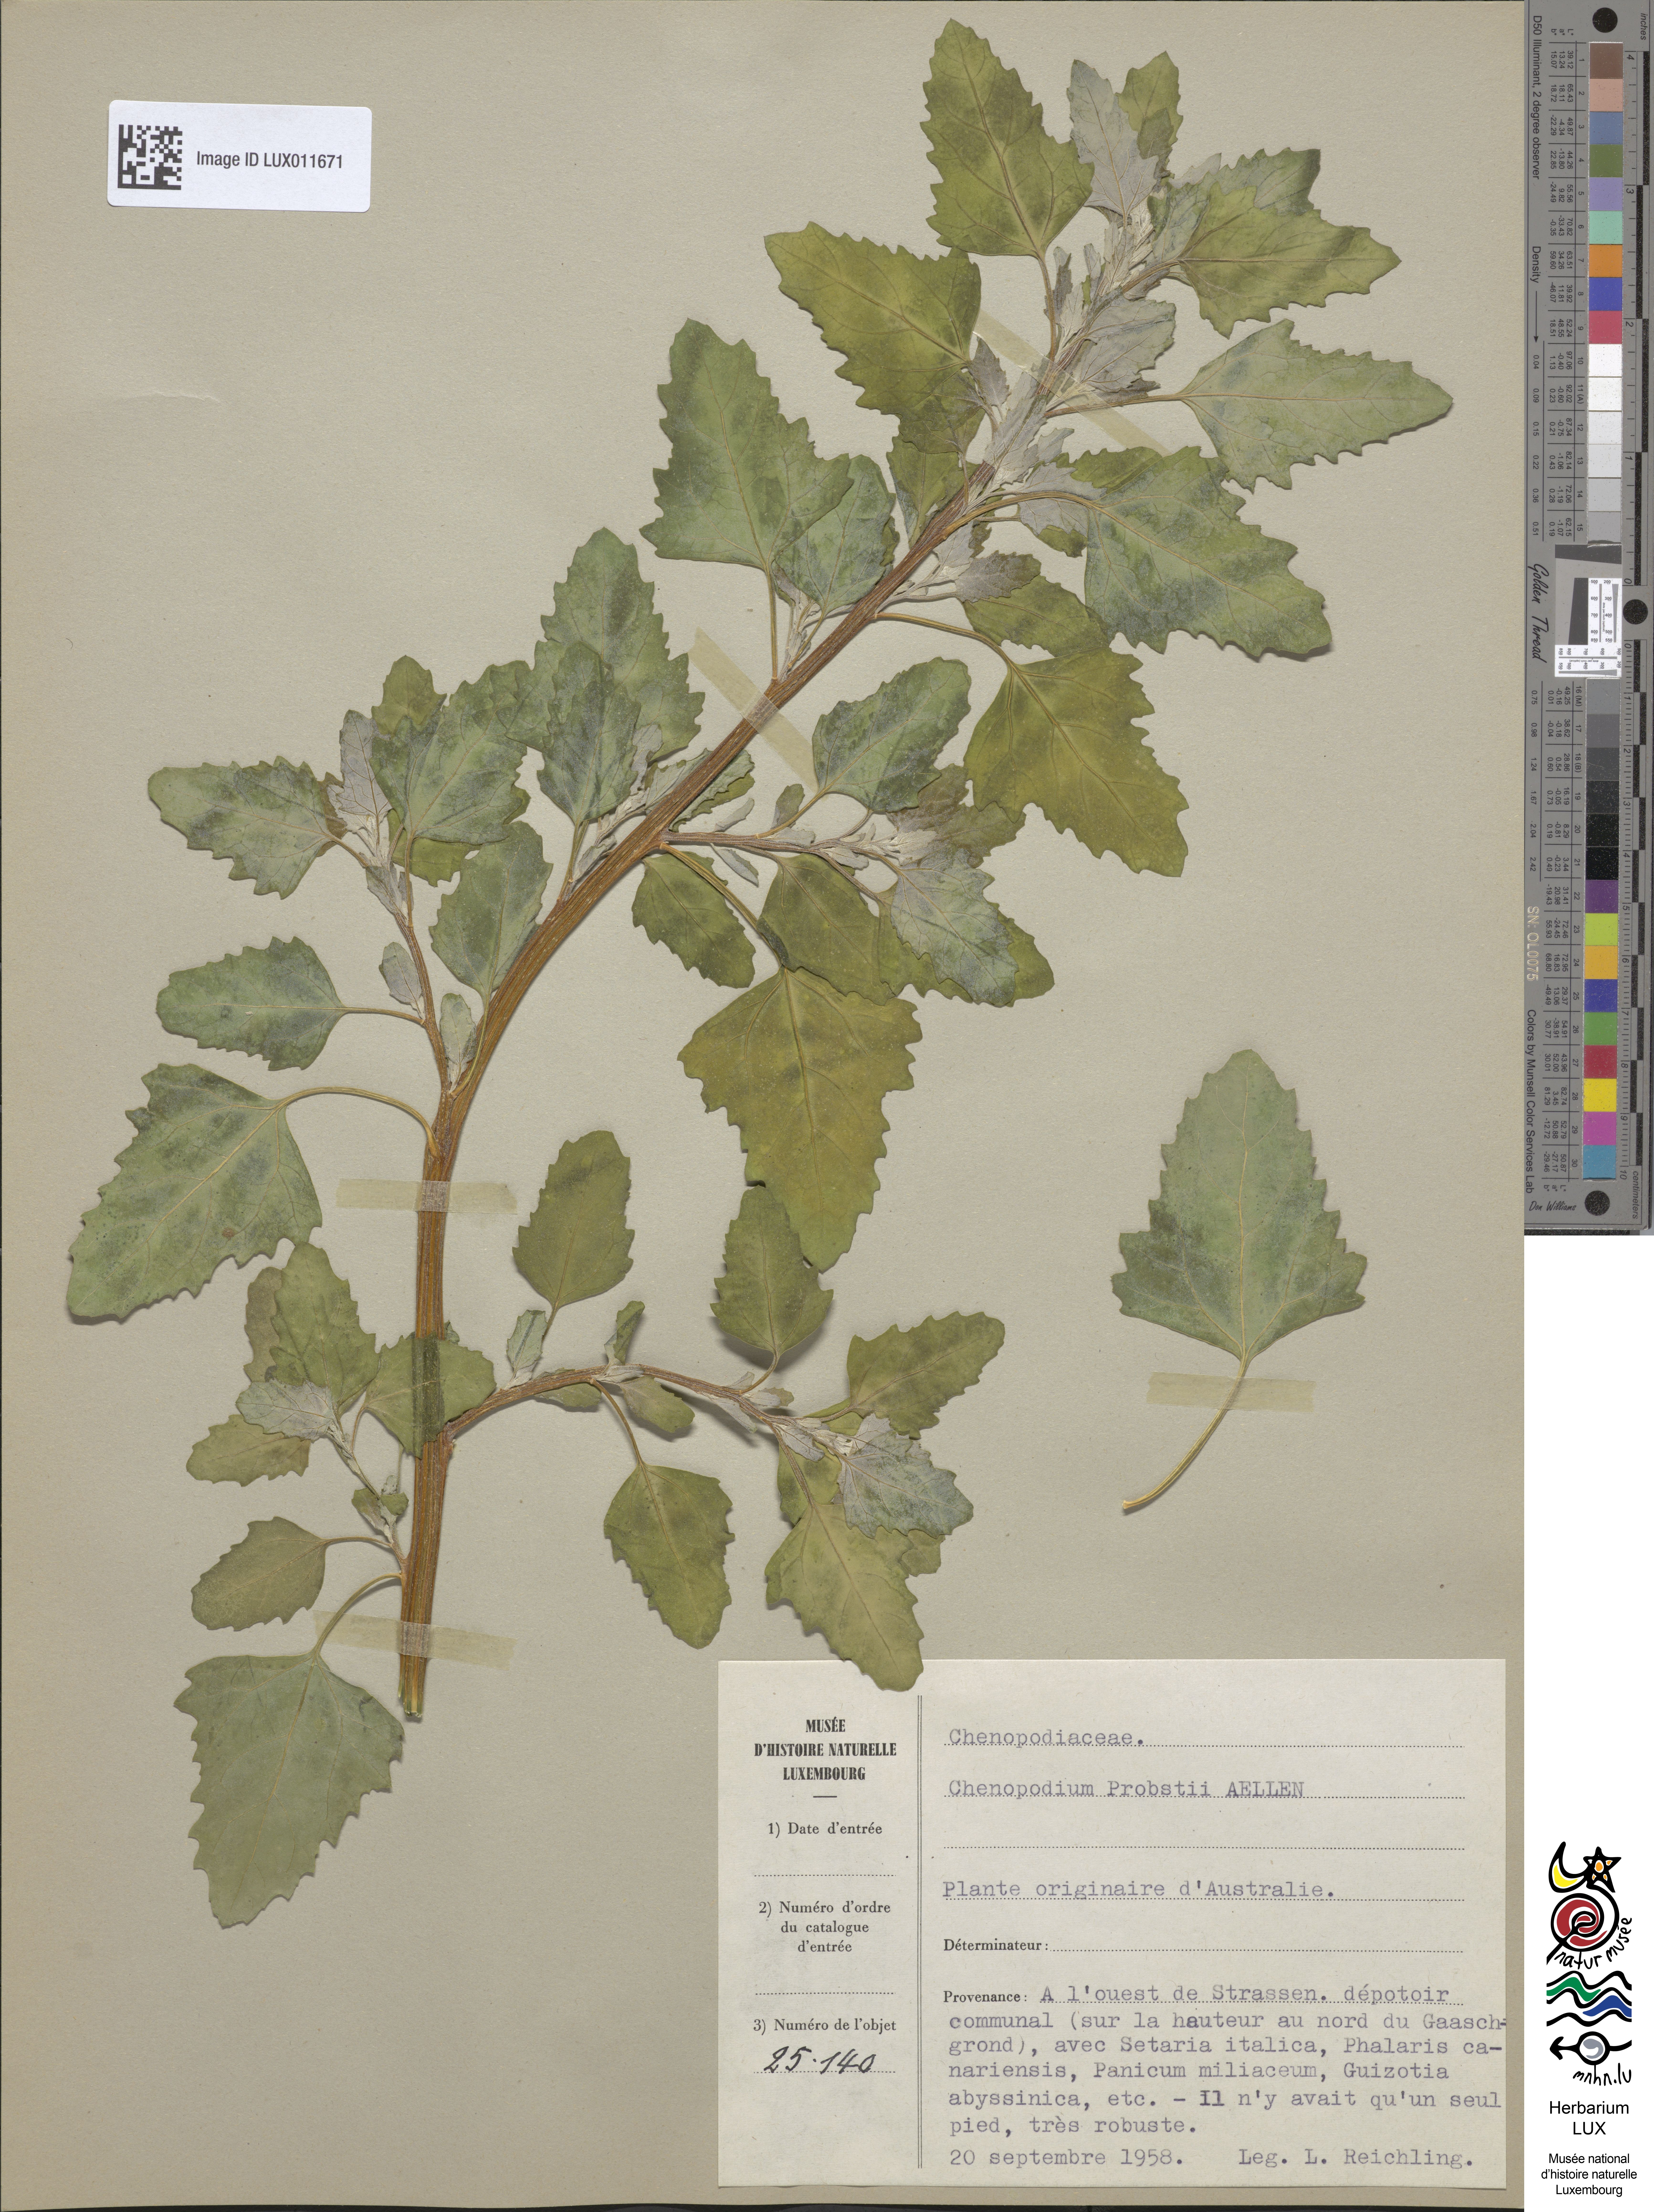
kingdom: Plantae
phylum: Tracheophyta
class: Magnoliopsida
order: Caryophyllales
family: Amaranthaceae
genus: Chenopodium
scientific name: Chenopodium probstii
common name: Probst's goosefoot
